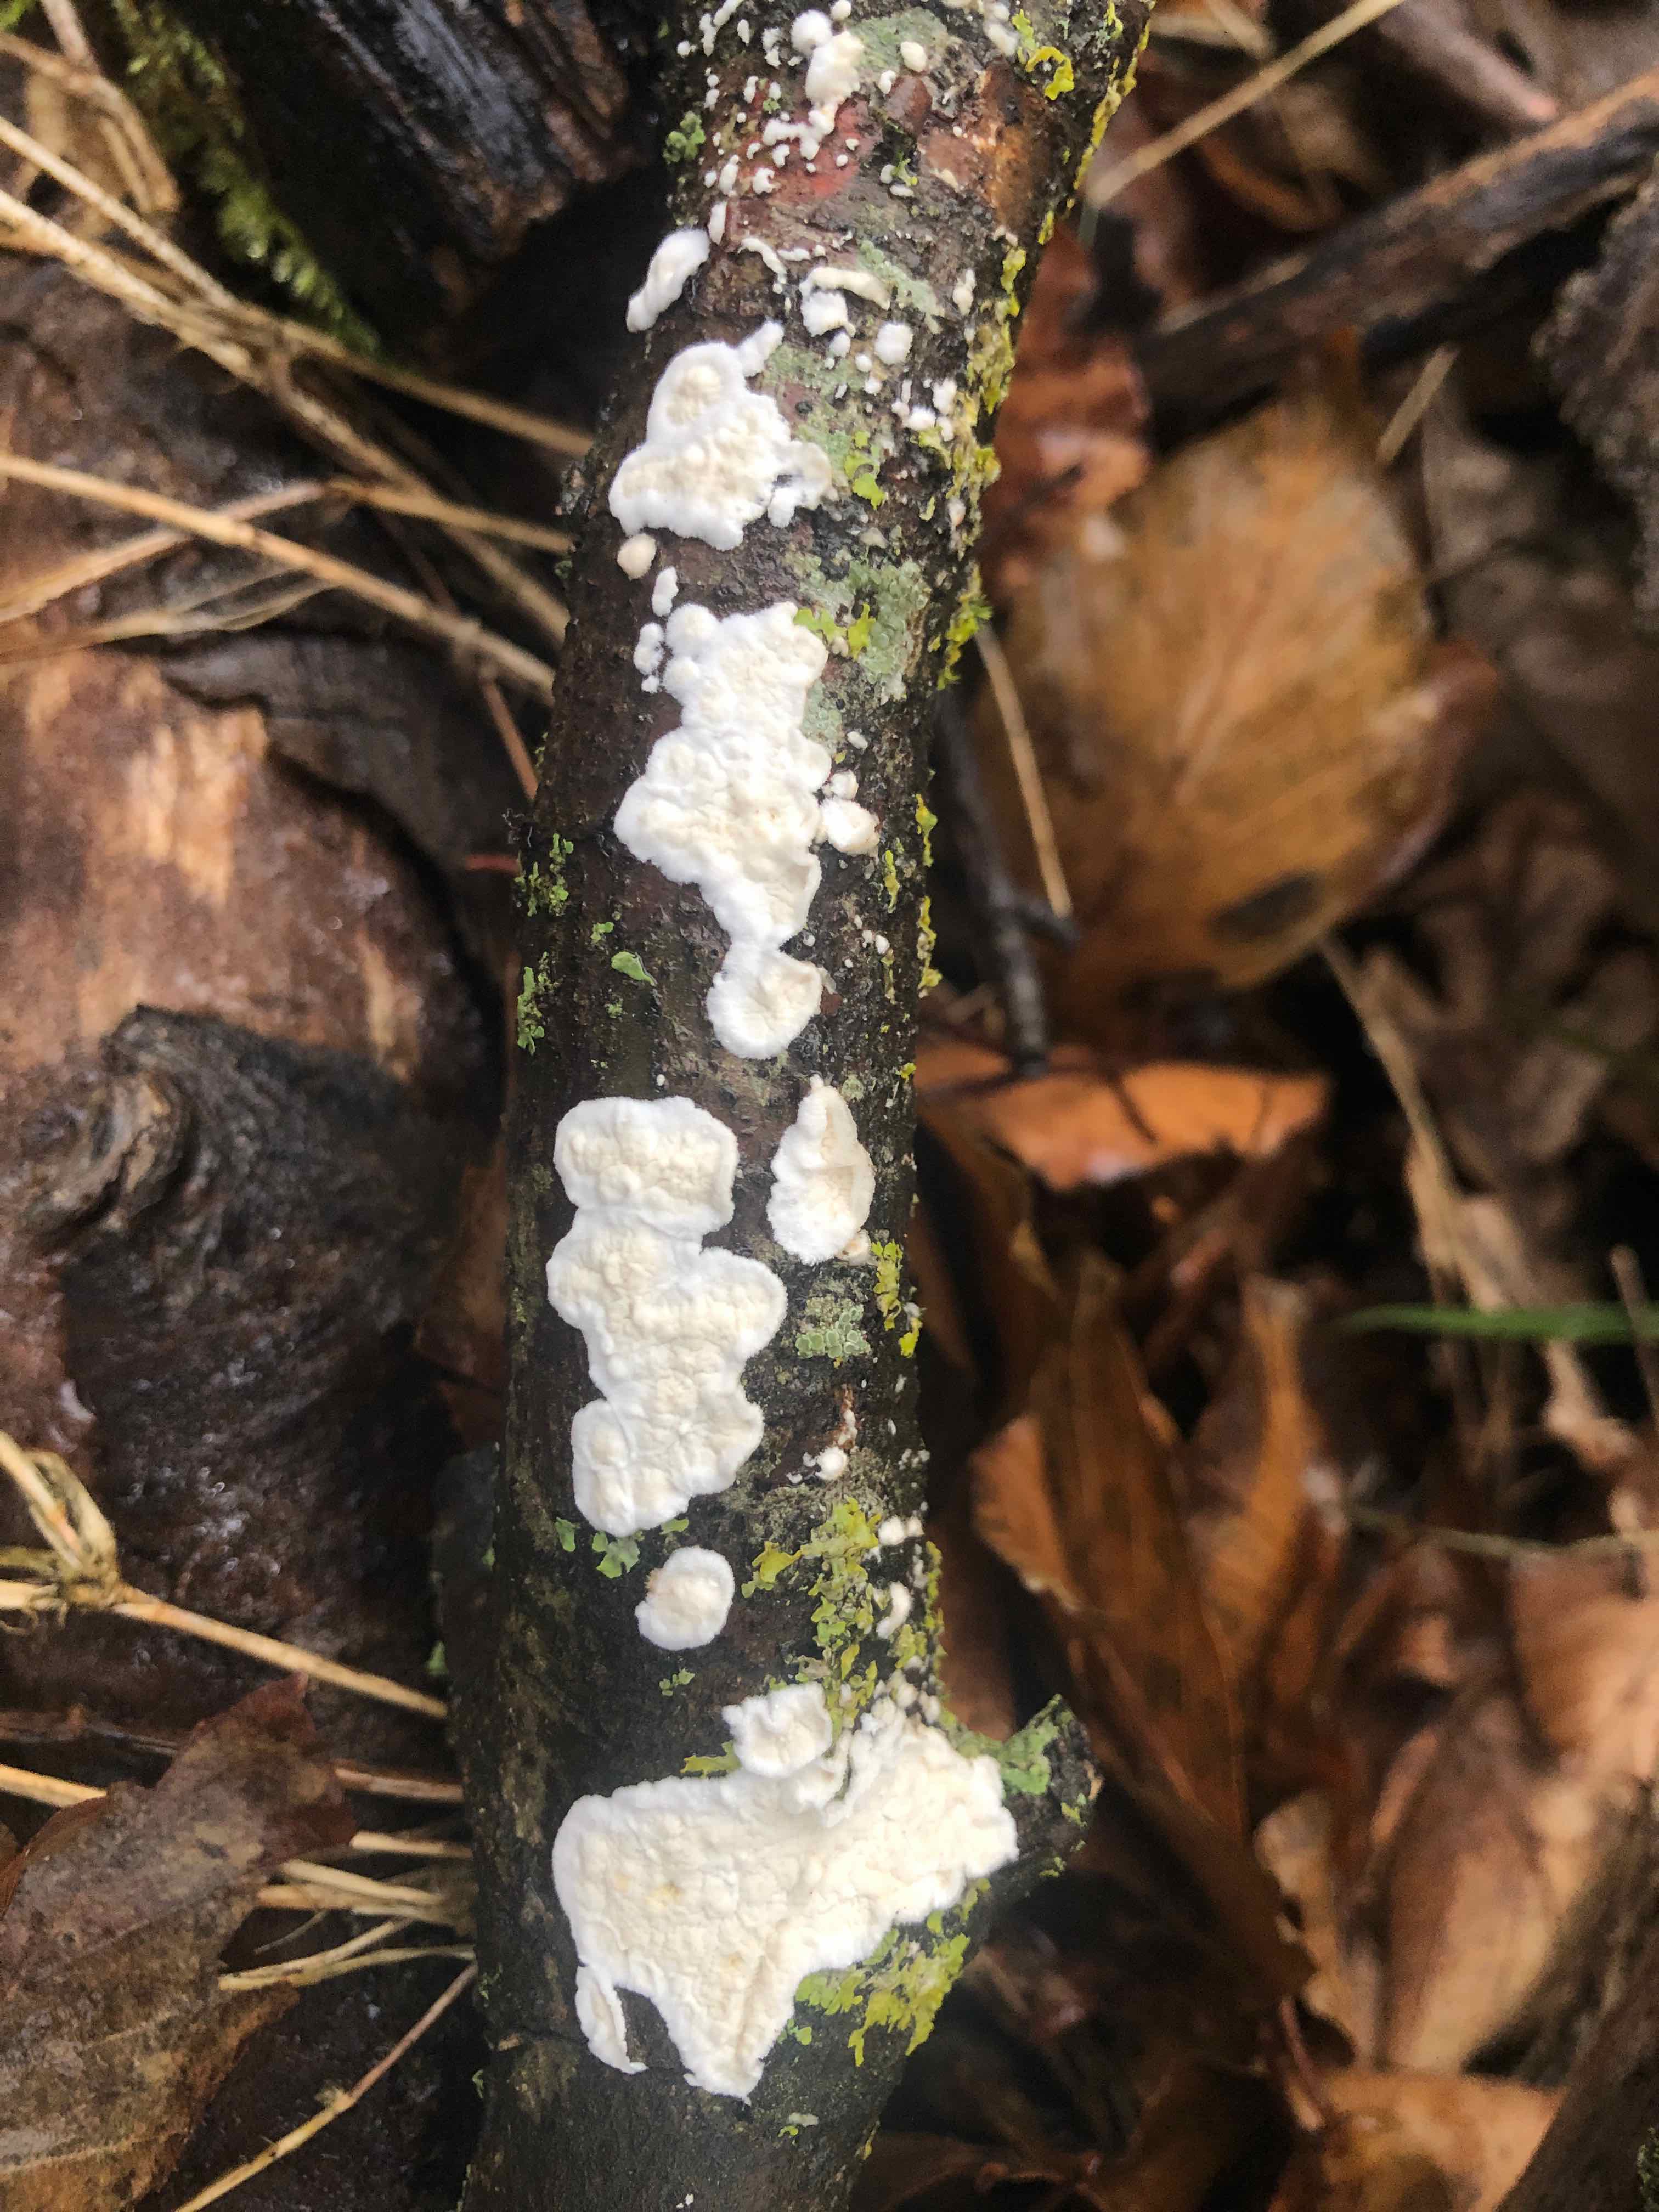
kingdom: Fungi
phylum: Basidiomycota
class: Agaricomycetes
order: Polyporales
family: Irpicaceae
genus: Byssomerulius
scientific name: Byssomerulius corium
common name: læder-åresvamp
